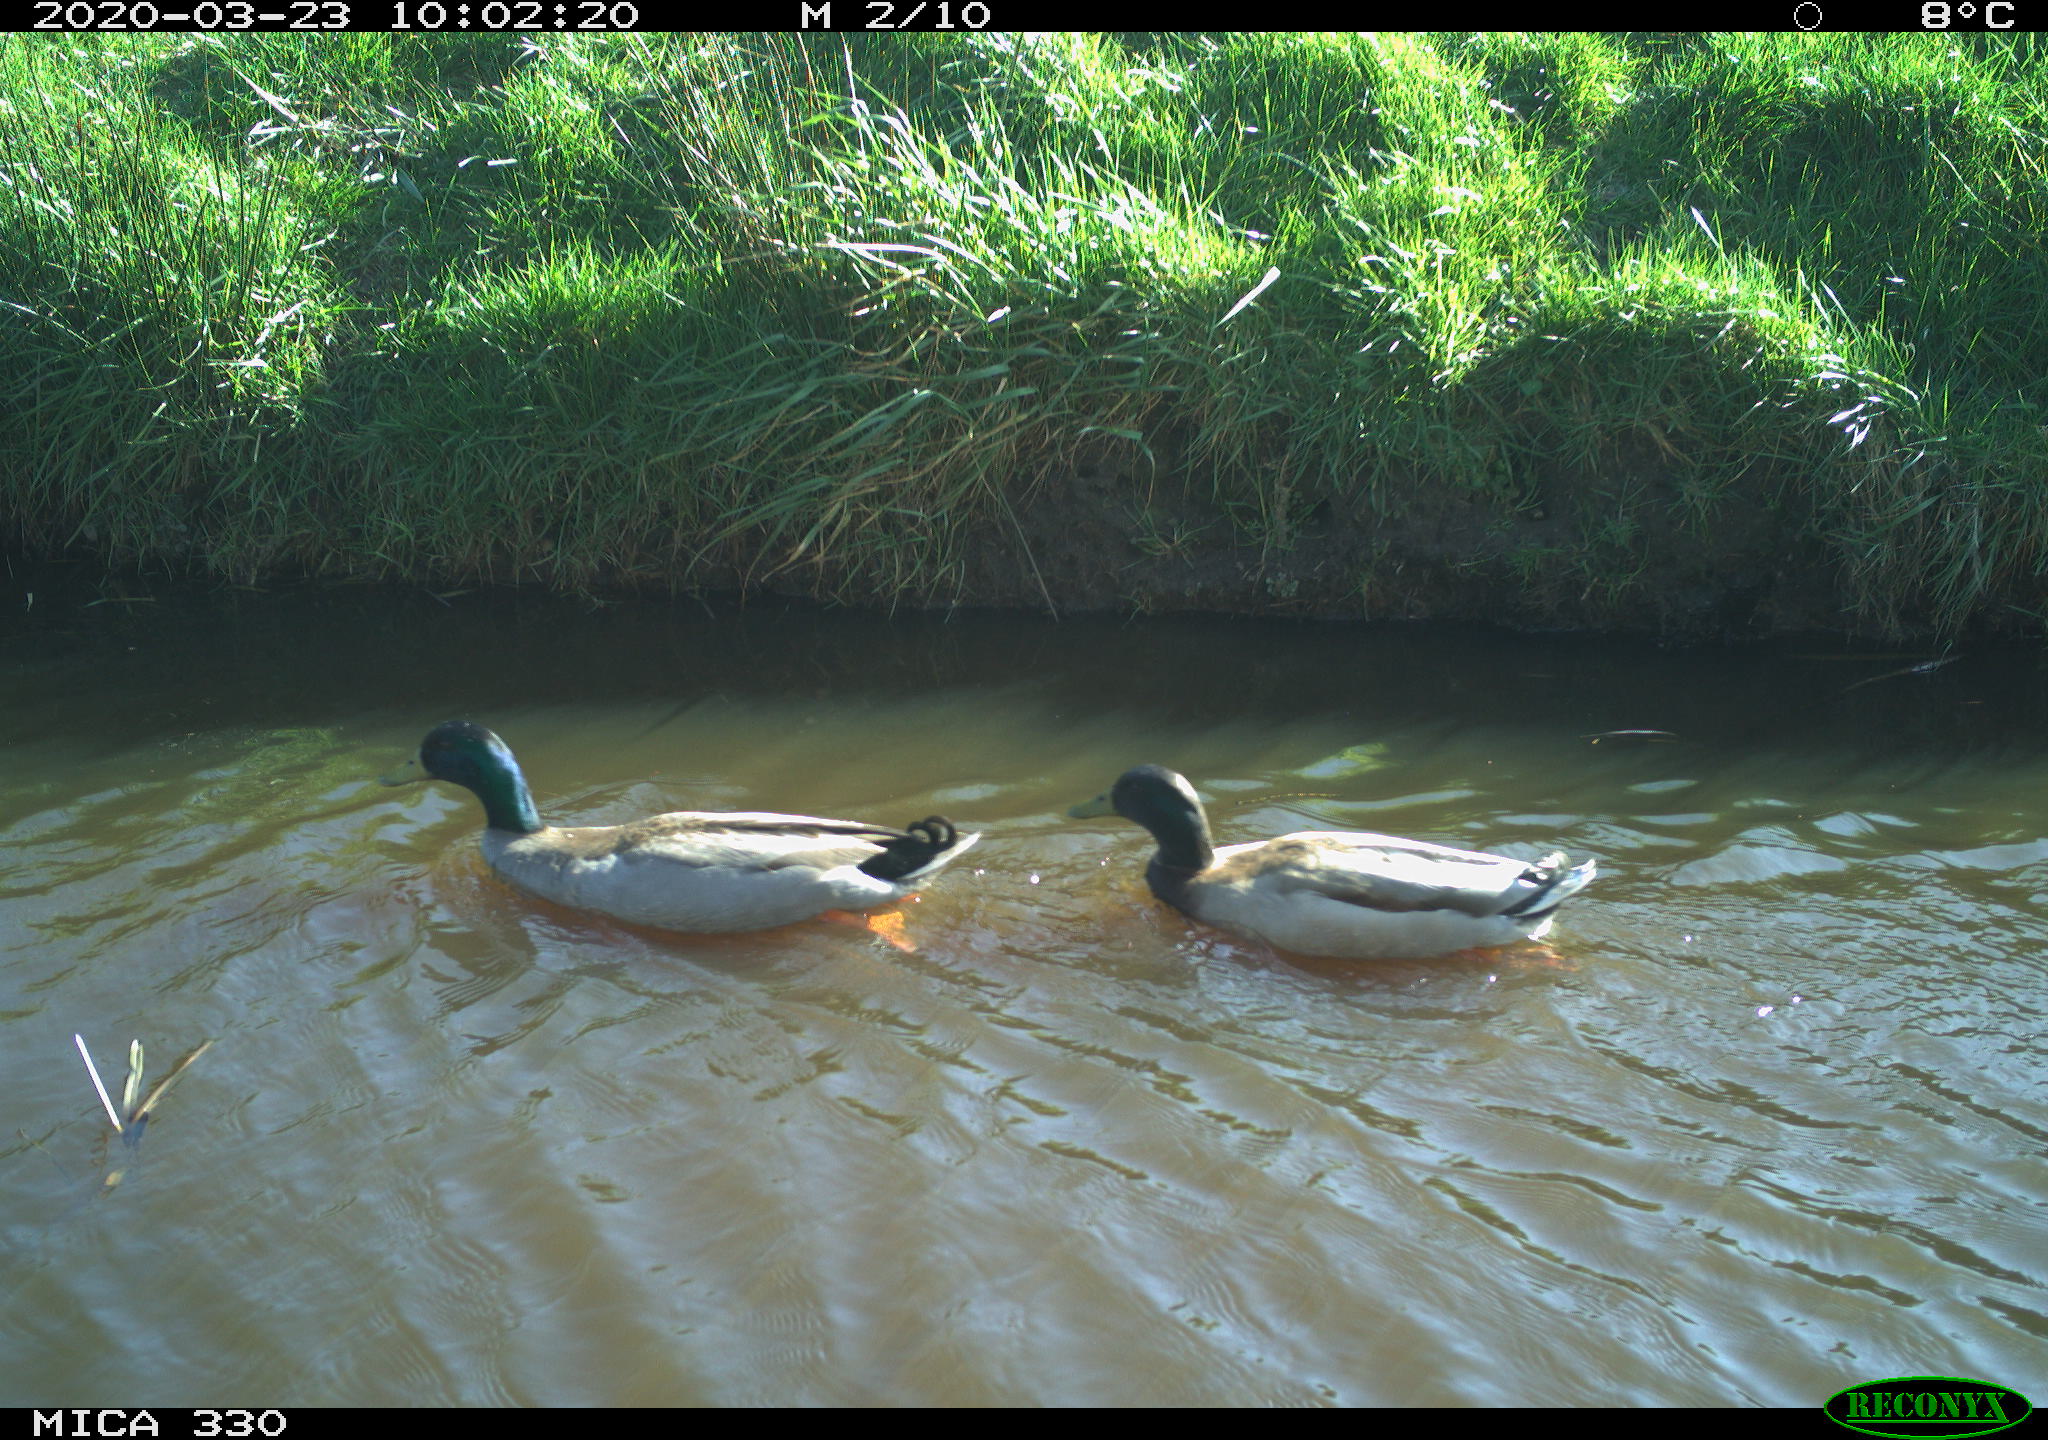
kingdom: Animalia
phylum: Chordata
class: Aves
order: Anseriformes
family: Anatidae
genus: Anas
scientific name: Anas platyrhynchos
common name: Mallard
